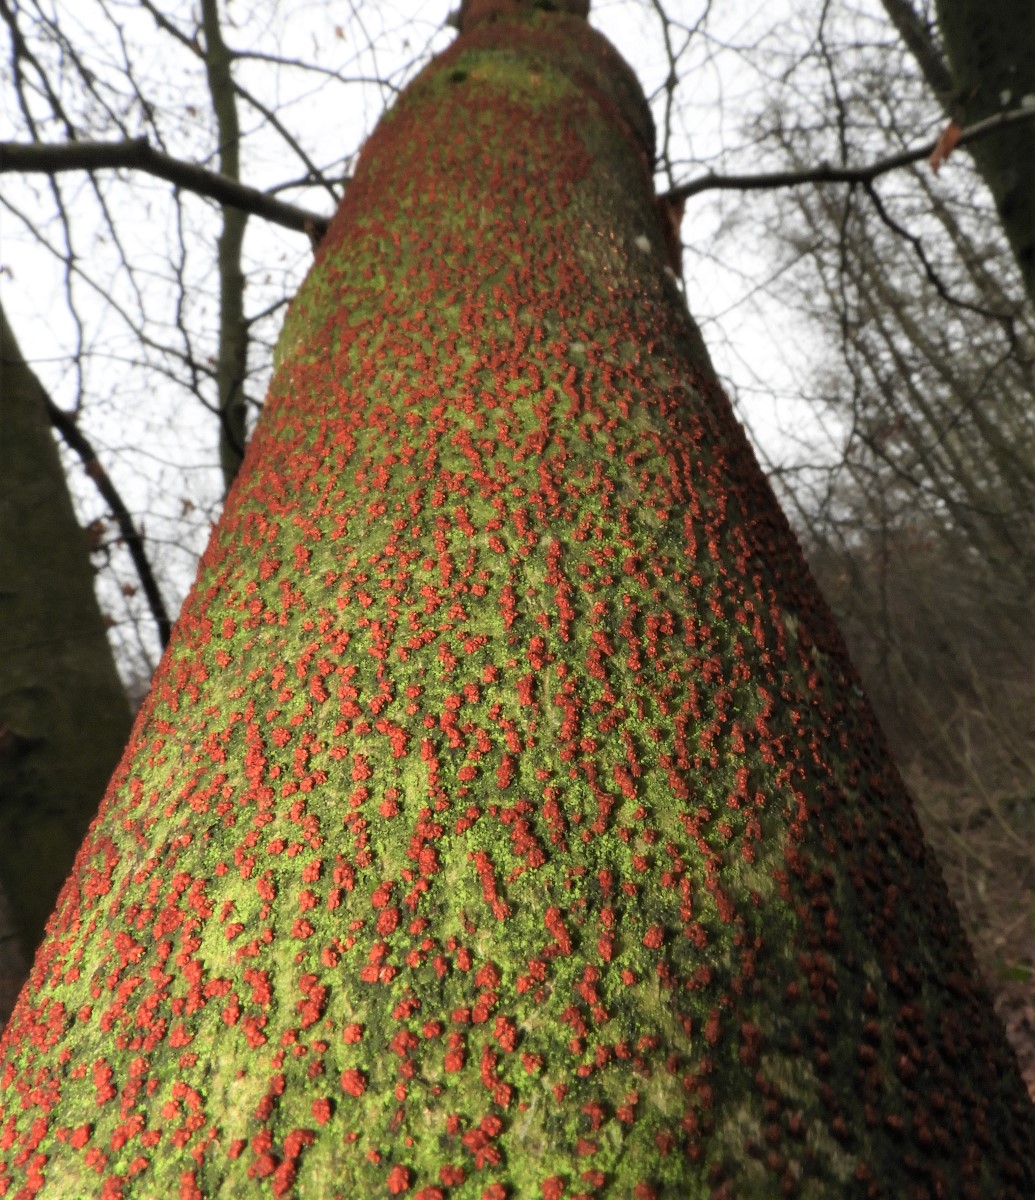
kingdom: Fungi
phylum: Ascomycota
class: Sordariomycetes
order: Hypocreales
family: Nectriaceae
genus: Nectria
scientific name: Nectria cinnabarina
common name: almindelig cinnobersvamp
